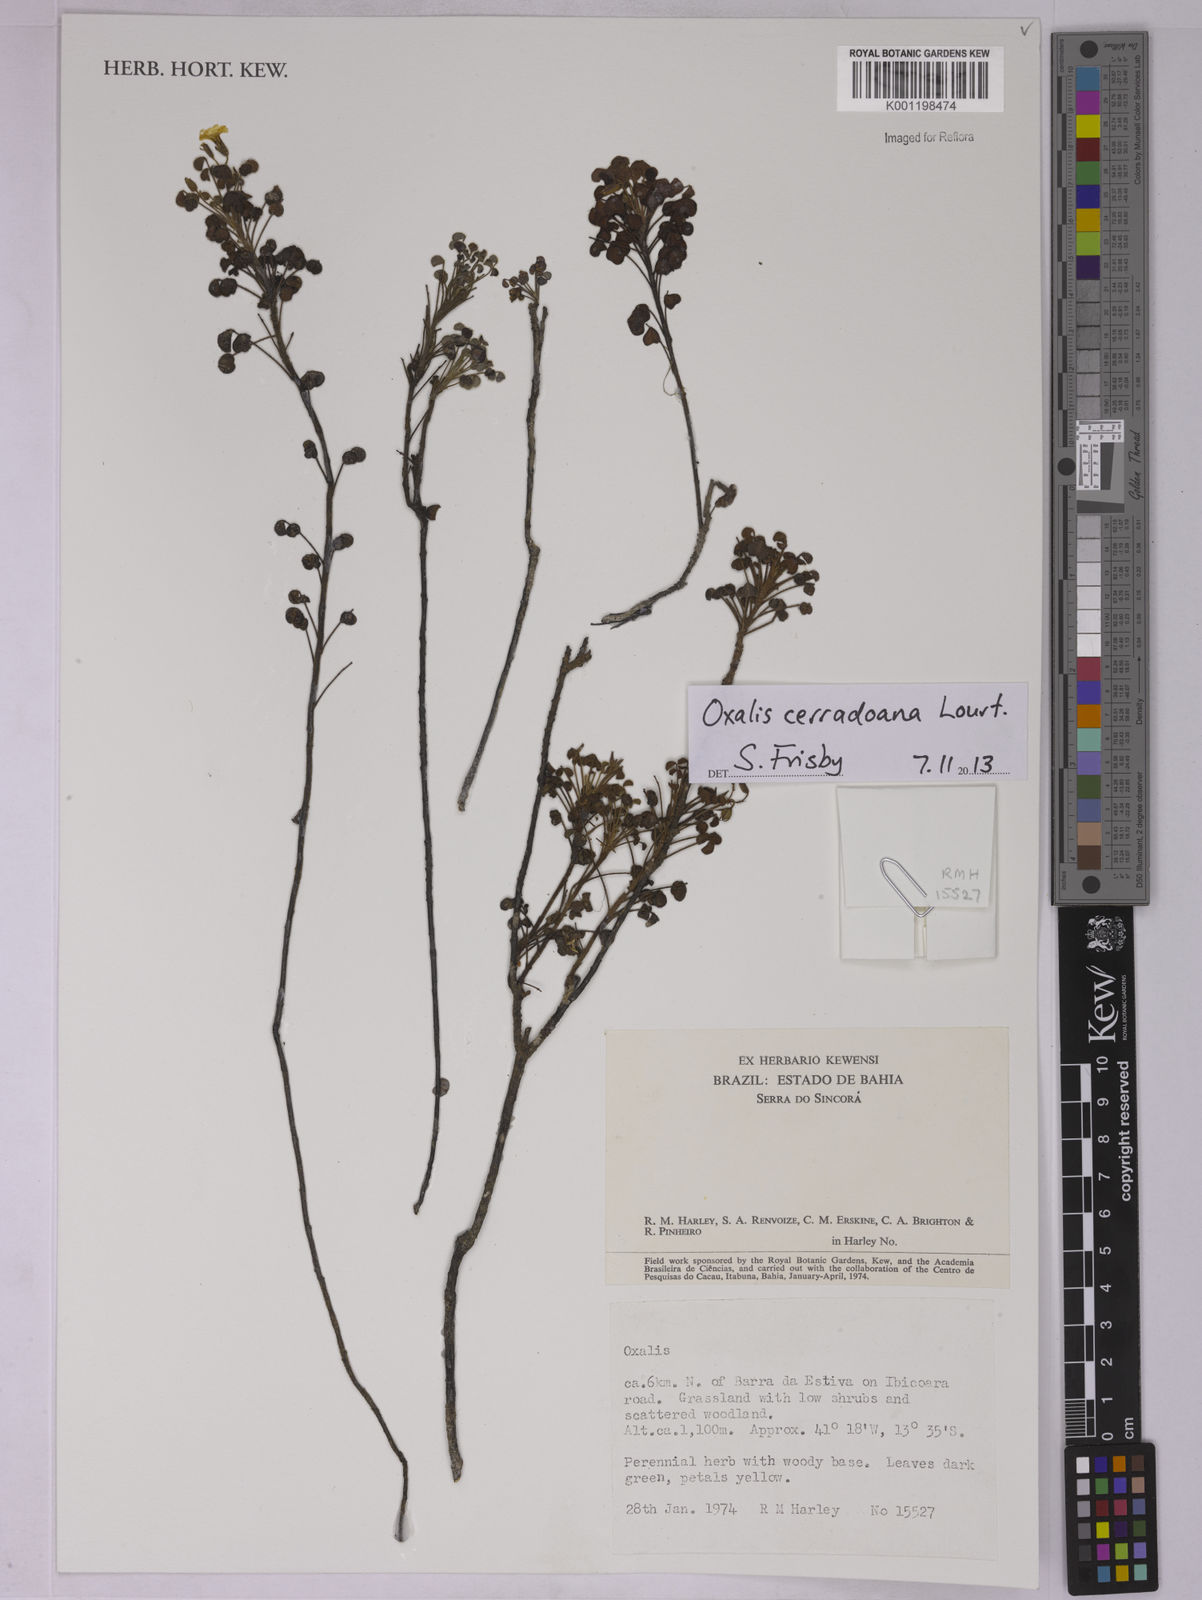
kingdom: Plantae
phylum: Tracheophyta
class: Magnoliopsida
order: Oxalidales
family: Oxalidaceae
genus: Oxalis
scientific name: Oxalis cerradoana
